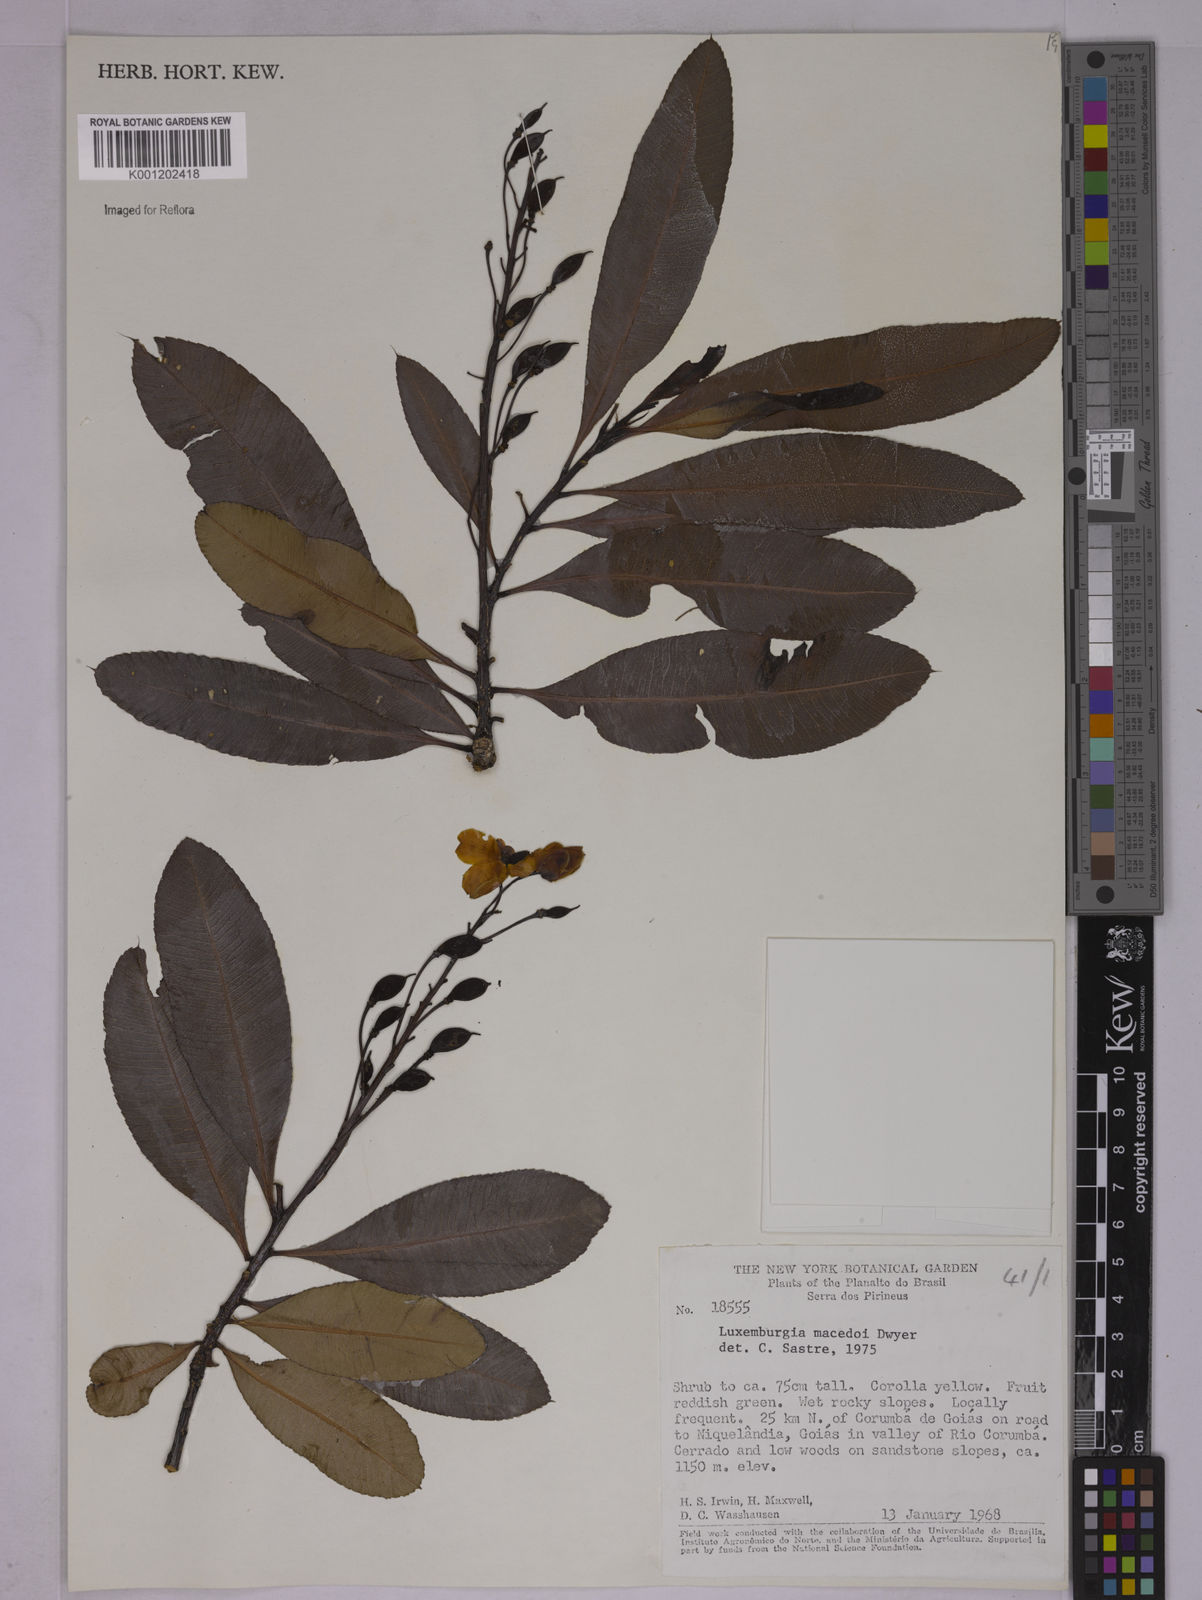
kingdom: Plantae
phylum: Tracheophyta
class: Magnoliopsida
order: Malpighiales
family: Ochnaceae
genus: Luxemburgia
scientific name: Luxemburgia macedoi
